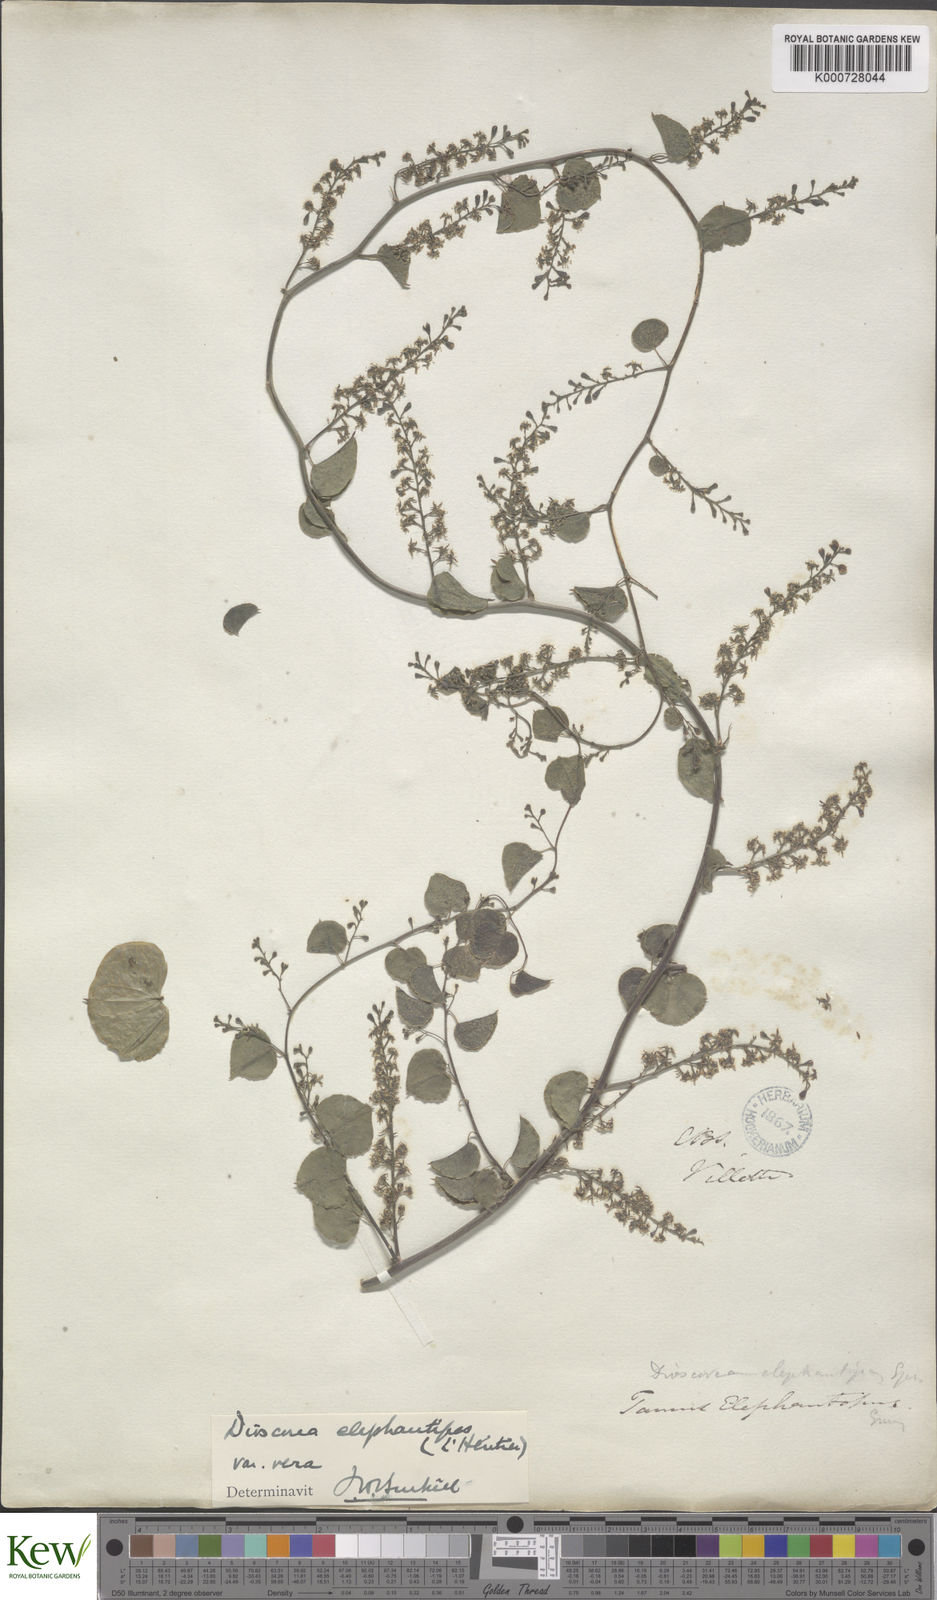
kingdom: Plantae
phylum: Tracheophyta
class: Liliopsida
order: Dioscoreales
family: Dioscoreaceae
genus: Dioscorea
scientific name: Dioscorea
